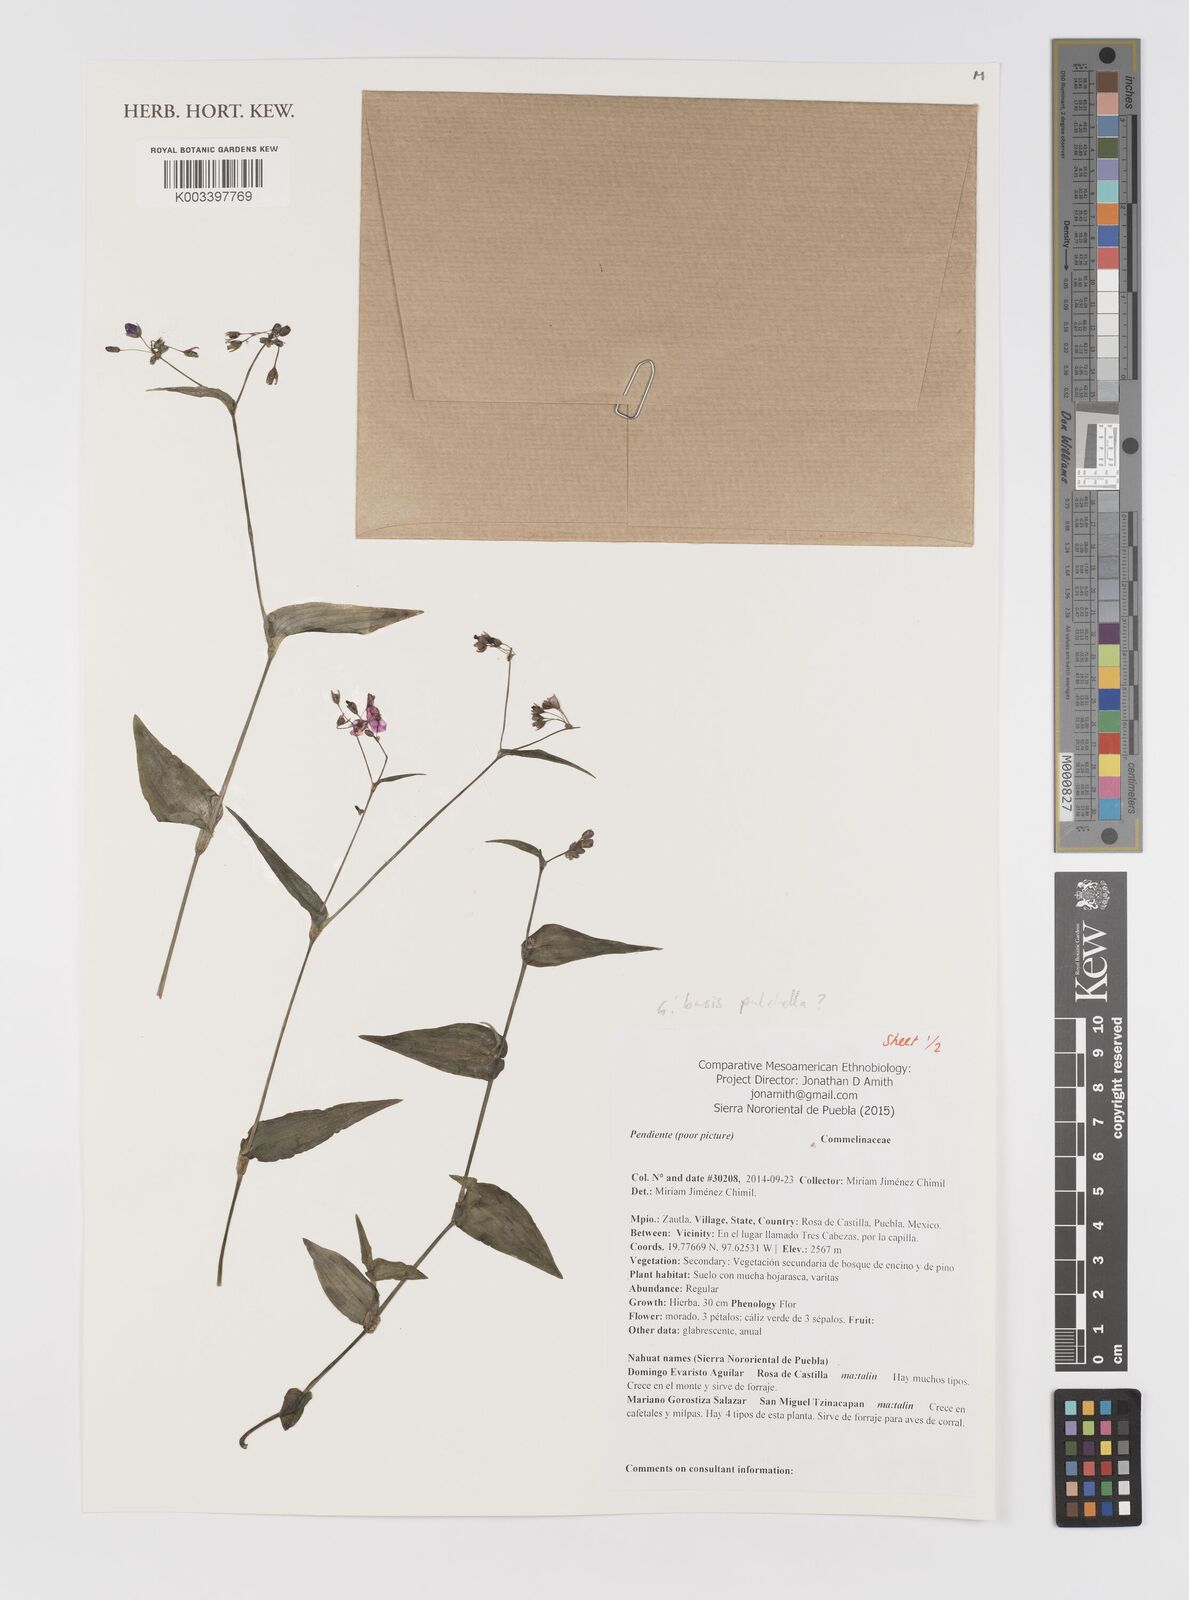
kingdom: Plantae
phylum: Tracheophyta
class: Liliopsida
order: Commelinales
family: Commelinaceae
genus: Gibasis
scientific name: Gibasis pulchella
